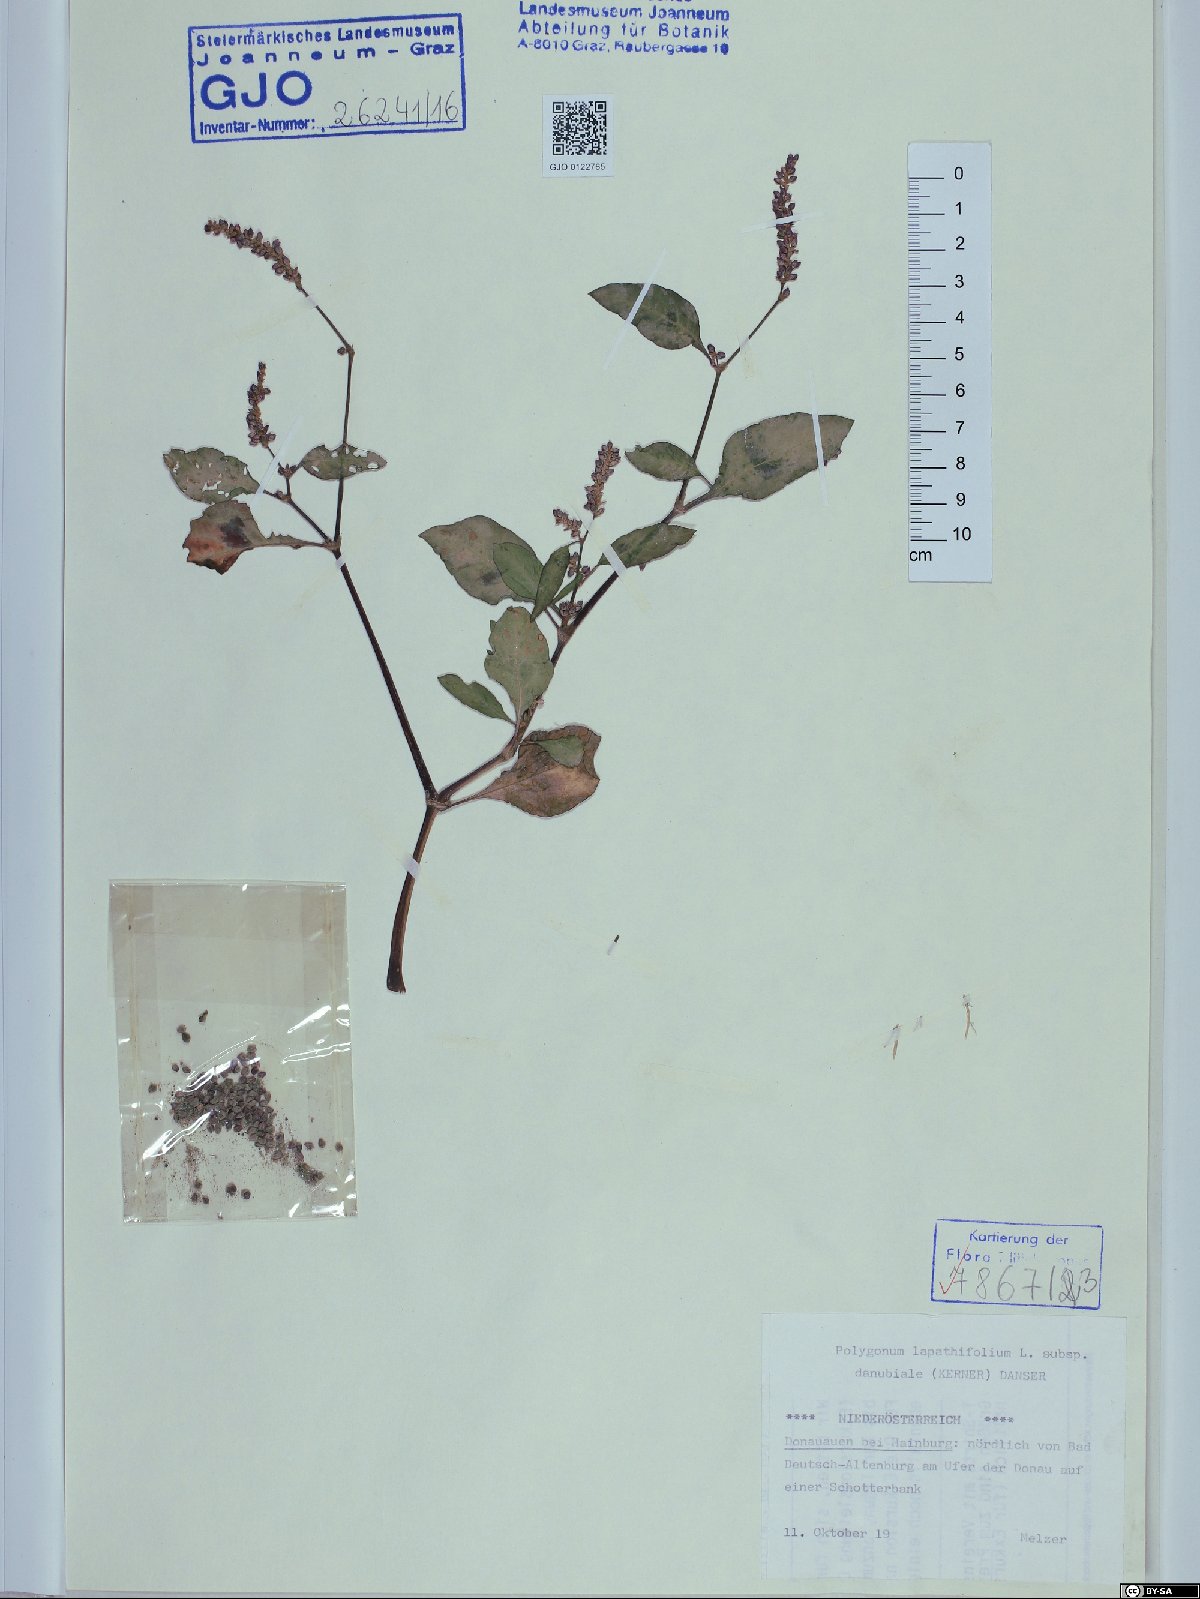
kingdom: Plantae
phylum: Tracheophyta
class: Magnoliopsida
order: Caryophyllales
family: Polygonaceae
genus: Persicaria
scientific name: Persicaria lapathifolia
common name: Curlytop knotweed
